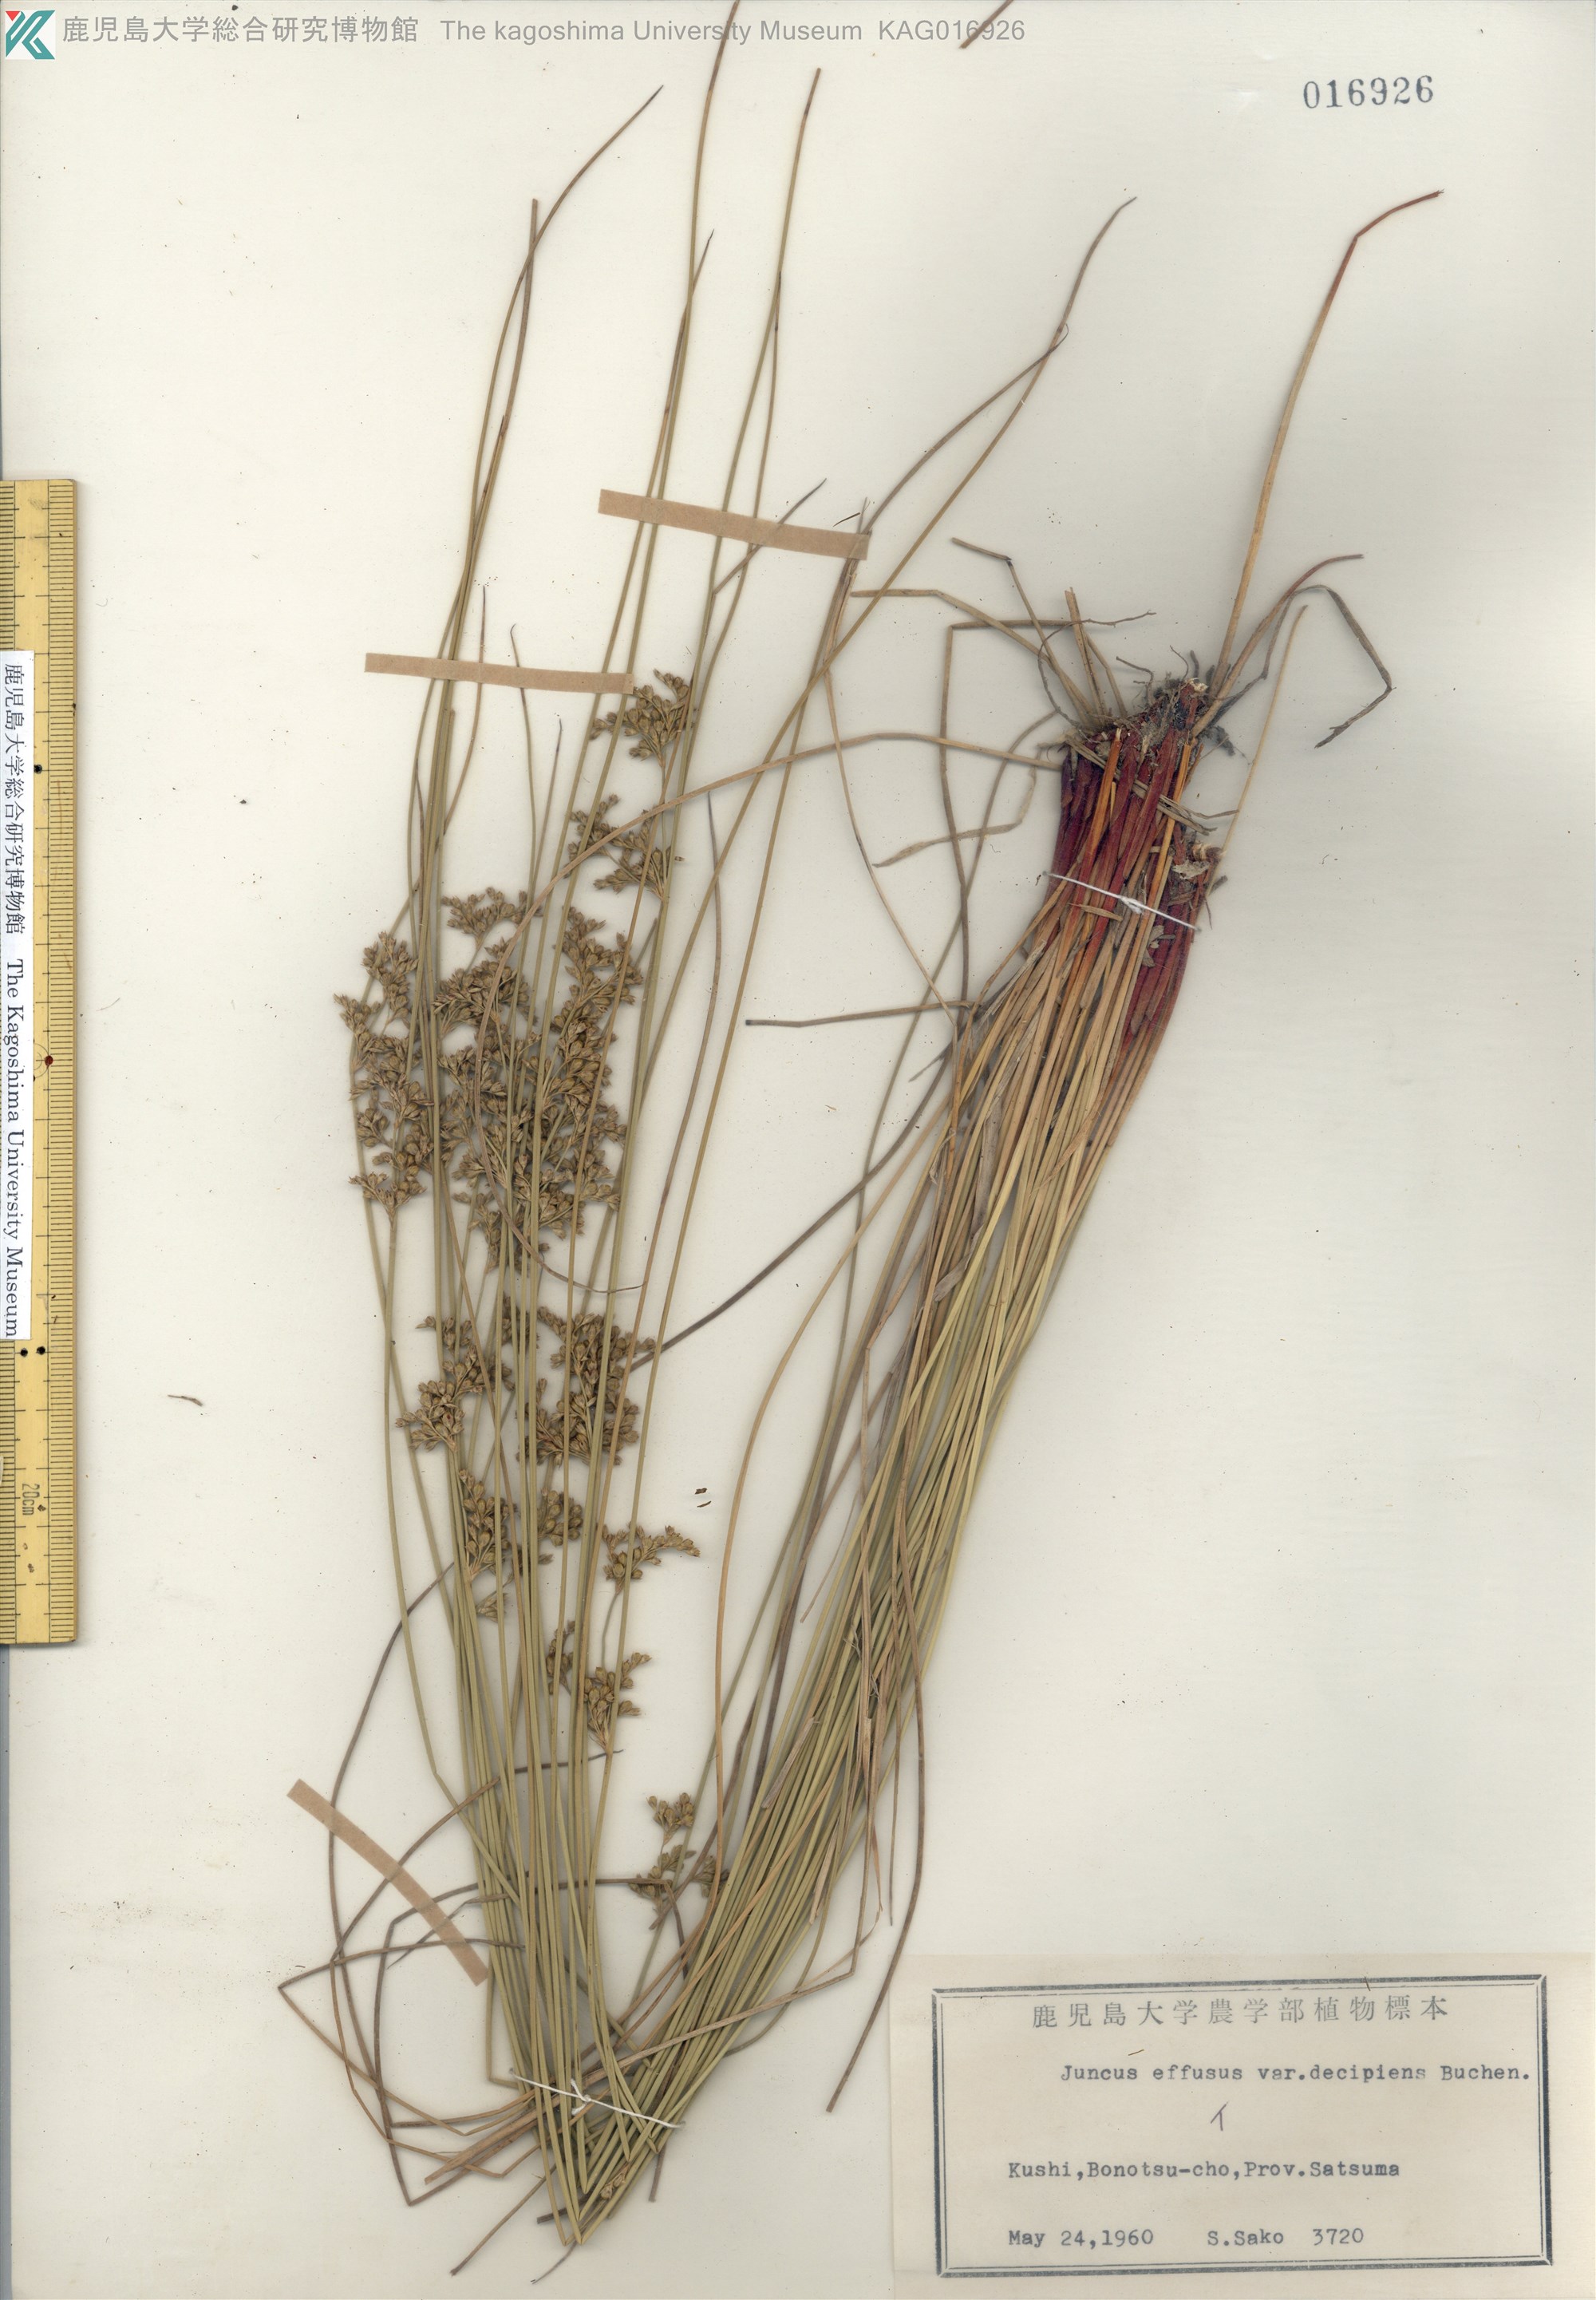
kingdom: Plantae
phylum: Tracheophyta
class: Liliopsida
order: Poales
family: Juncaceae
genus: Juncus
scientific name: Juncus decipiens
